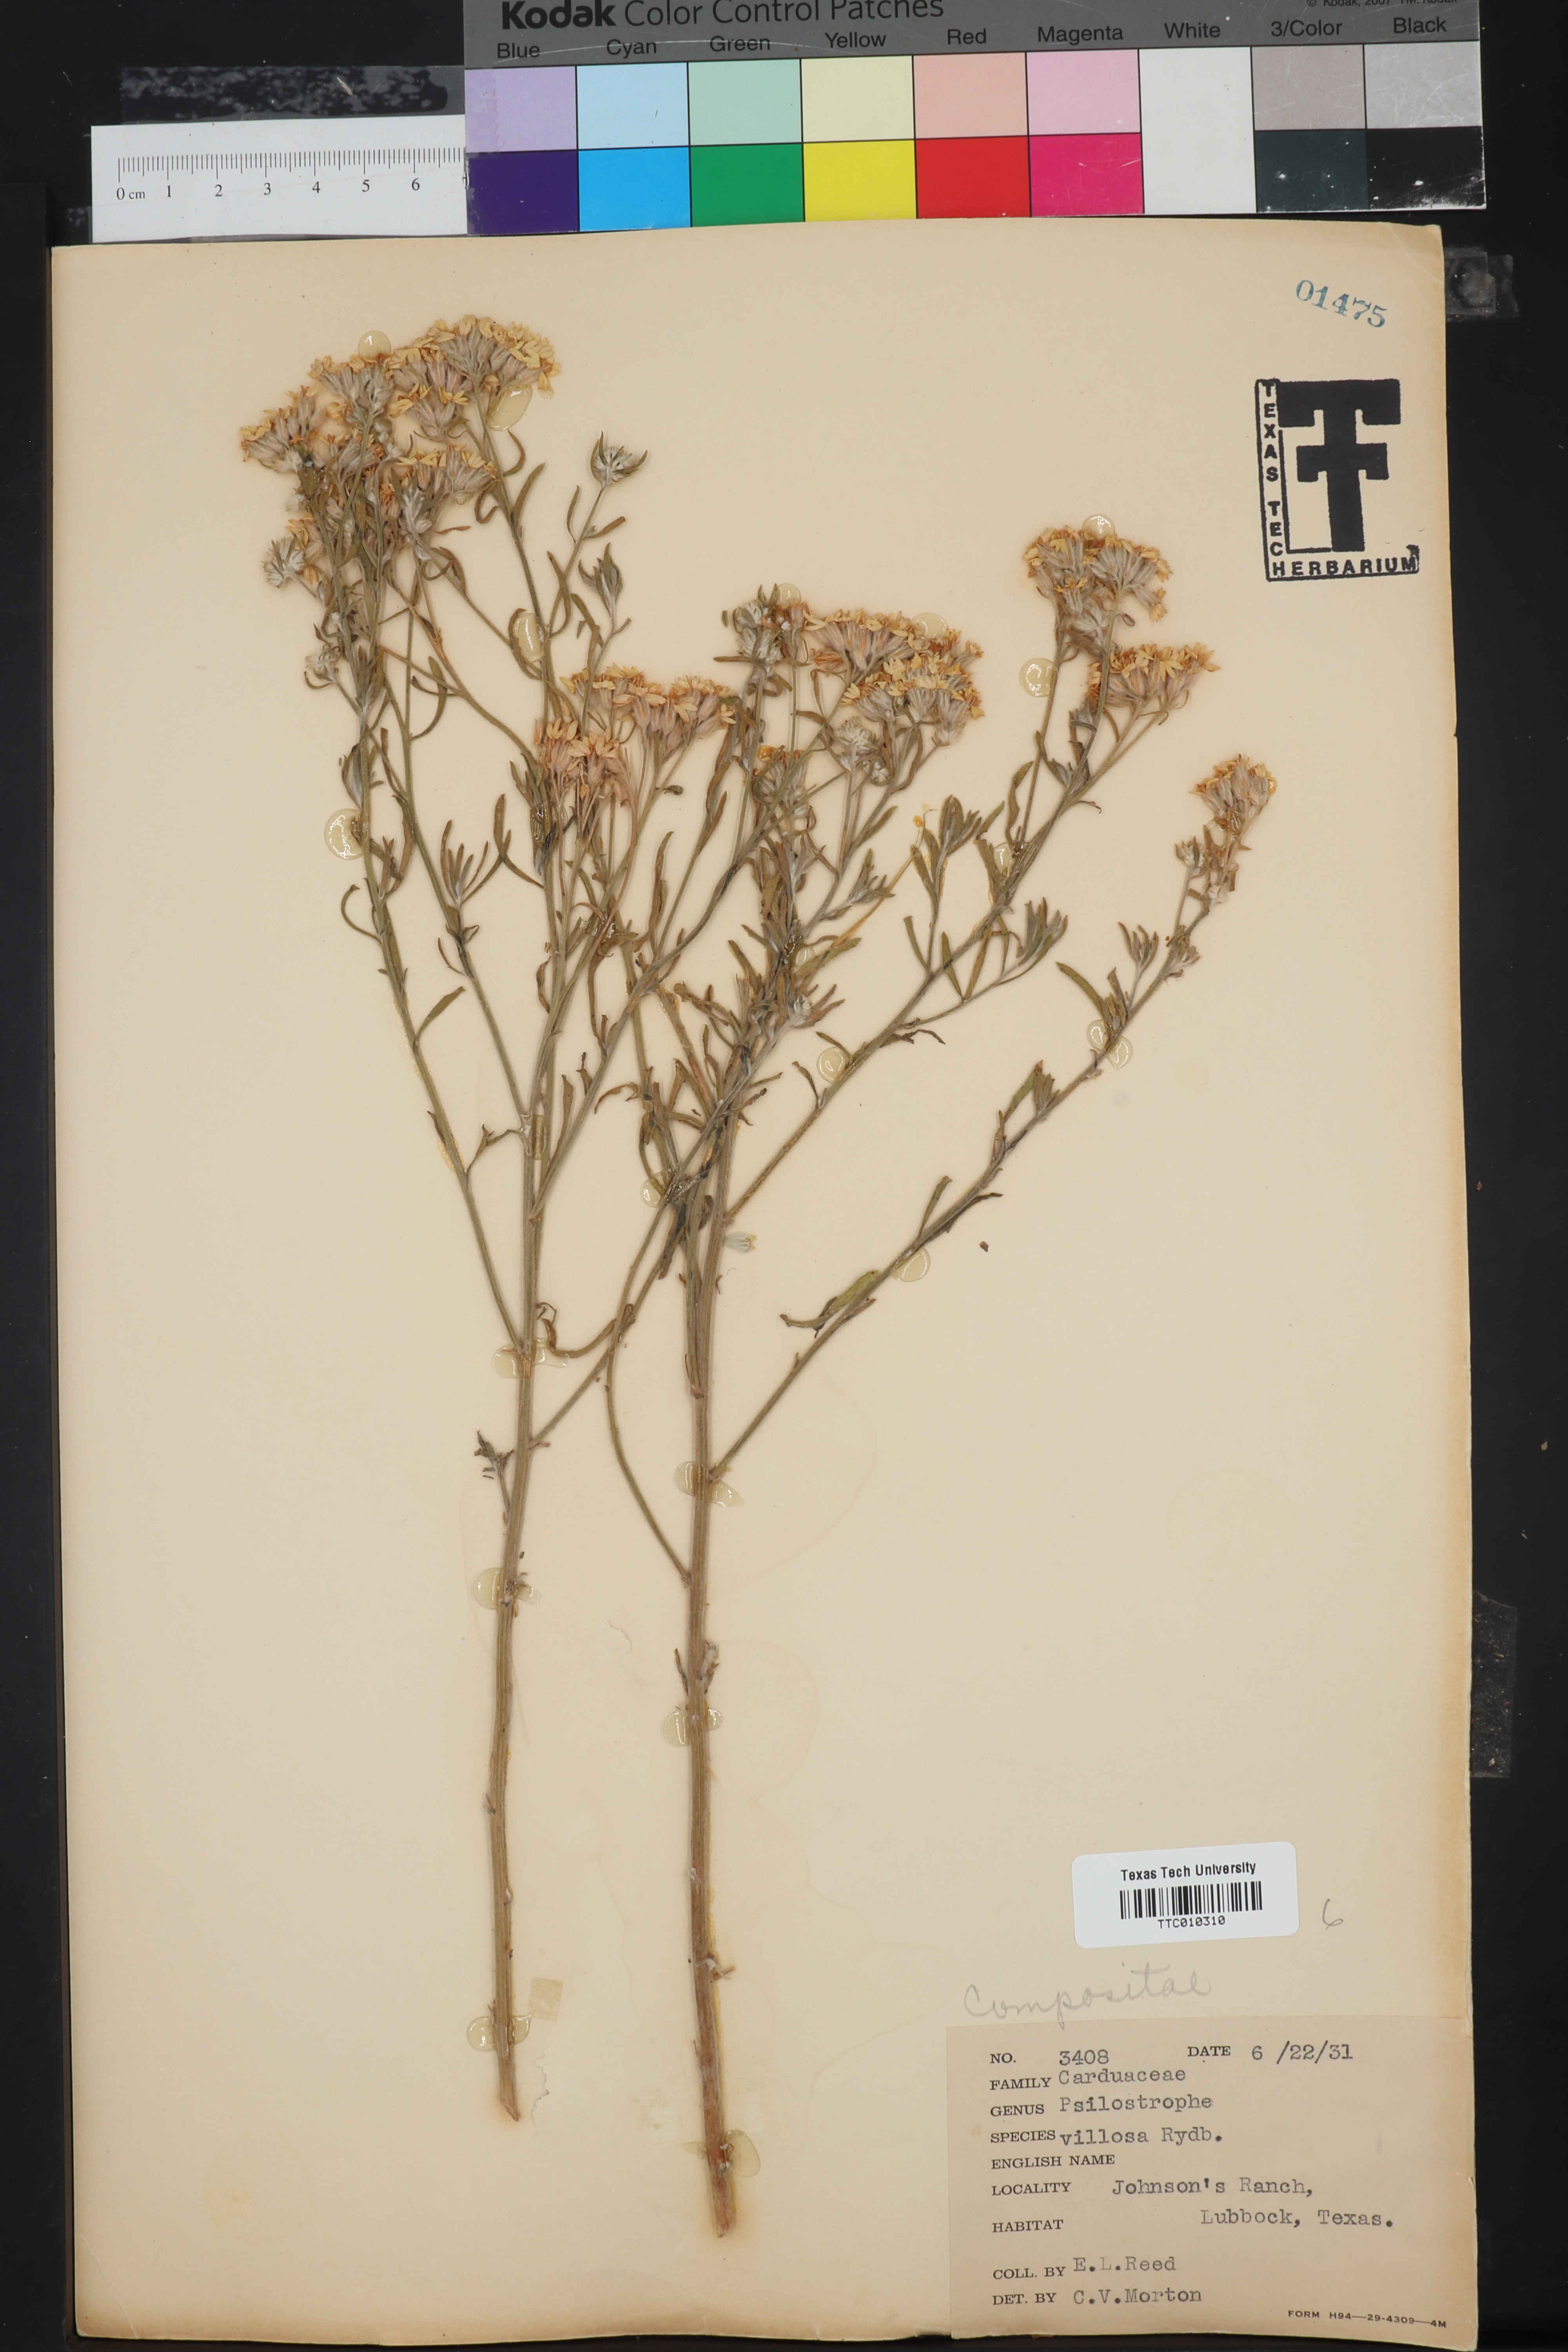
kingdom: Plantae
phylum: Tracheophyta
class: Magnoliopsida
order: Asterales
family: Asteraceae
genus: Psilostrophe
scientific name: Psilostrophe villosa
